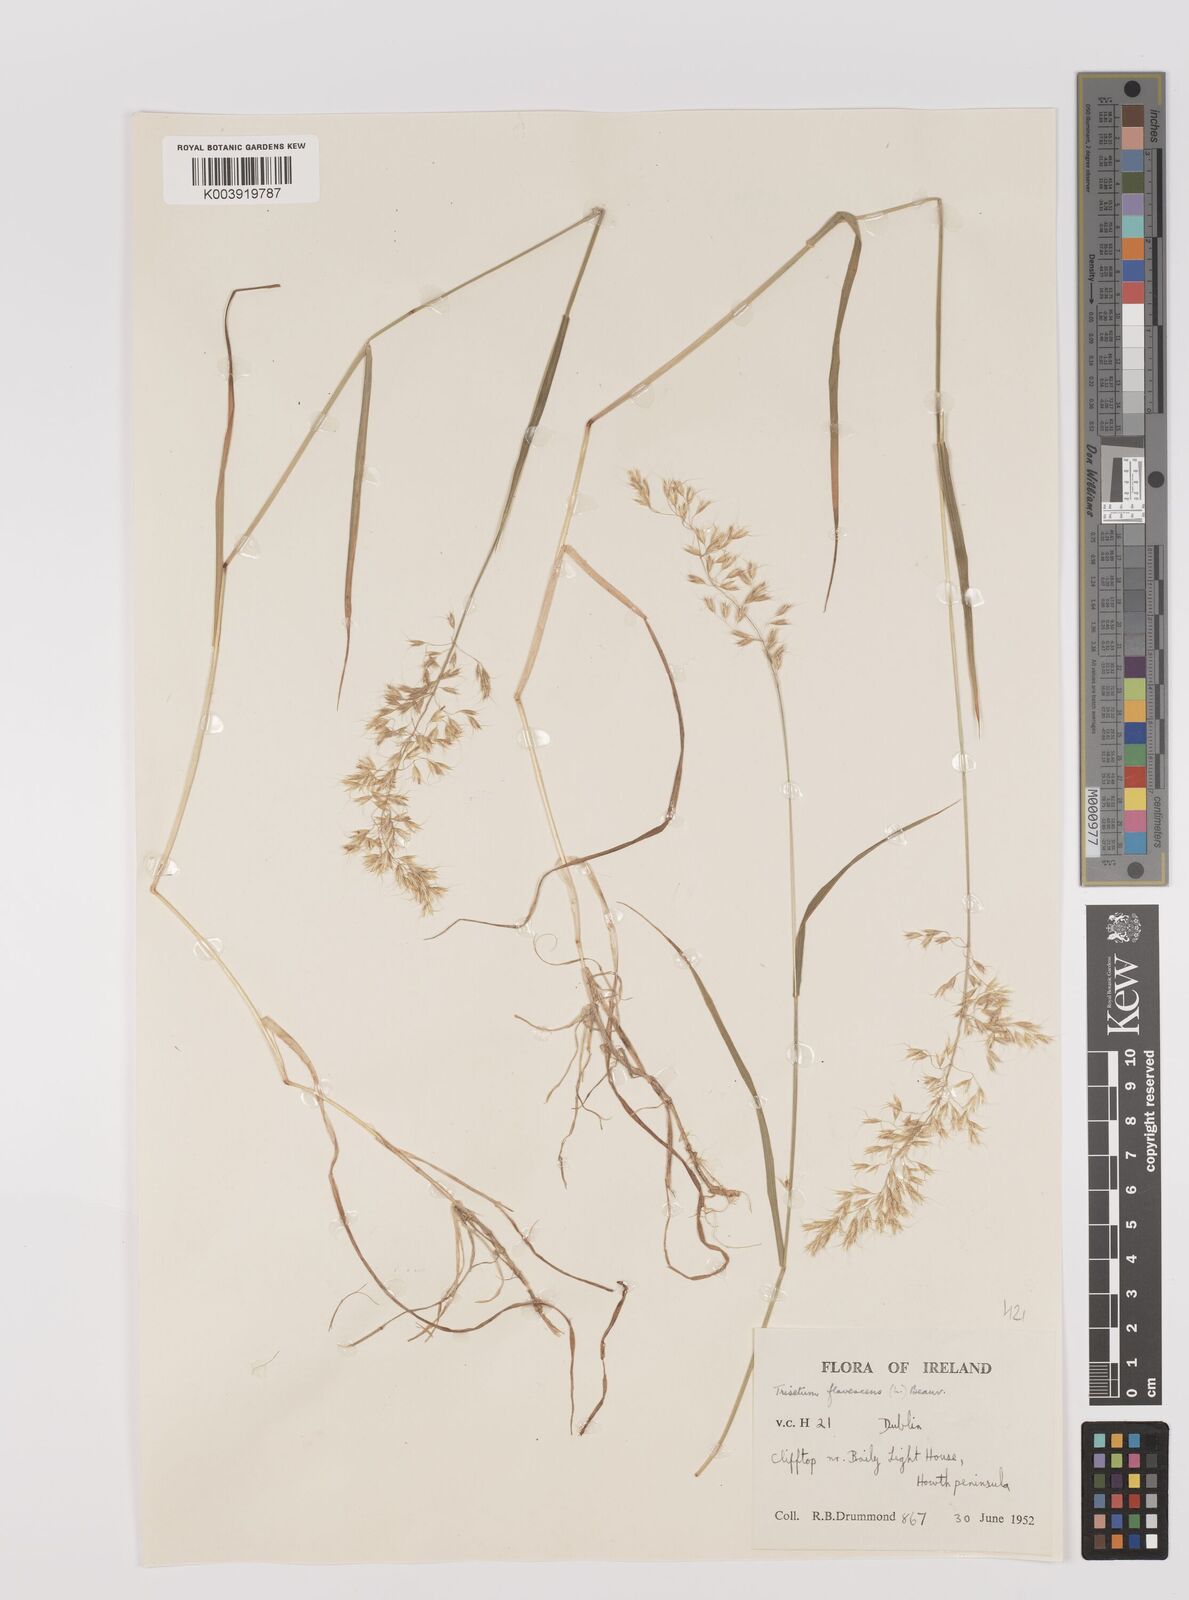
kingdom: Plantae
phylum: Tracheophyta
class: Liliopsida
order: Poales
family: Poaceae
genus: Trisetum
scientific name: Trisetum flavescens
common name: Yellow oat-grass
